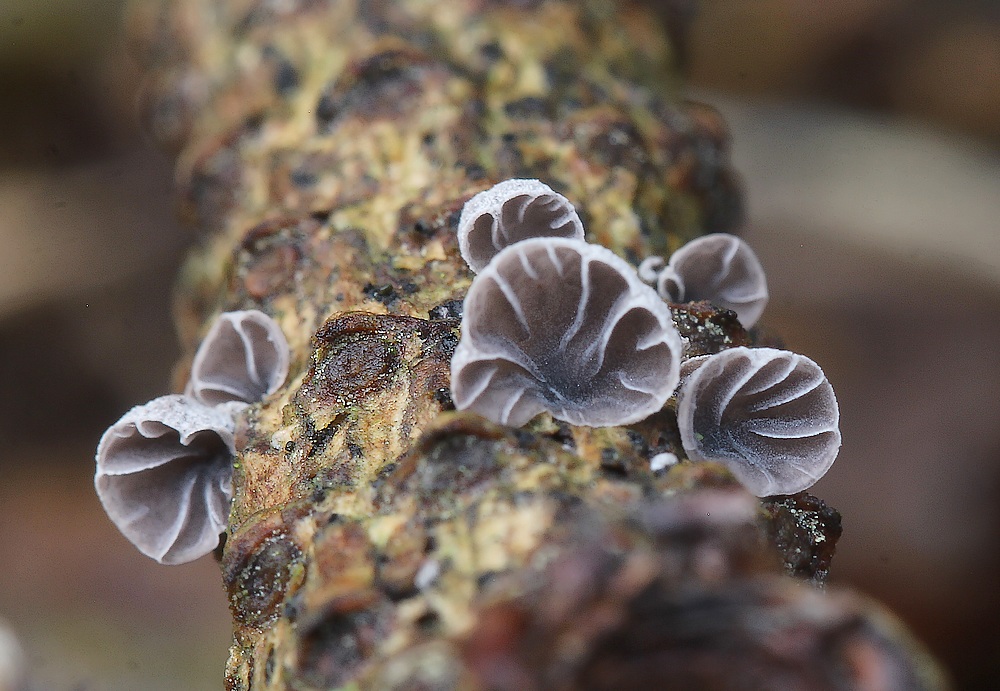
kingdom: Fungi
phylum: Basidiomycota
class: Agaricomycetes
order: Agaricales
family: Pleurotaceae
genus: Resupinatus
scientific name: Resupinatus applicatus
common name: lysfiltet barkhat
